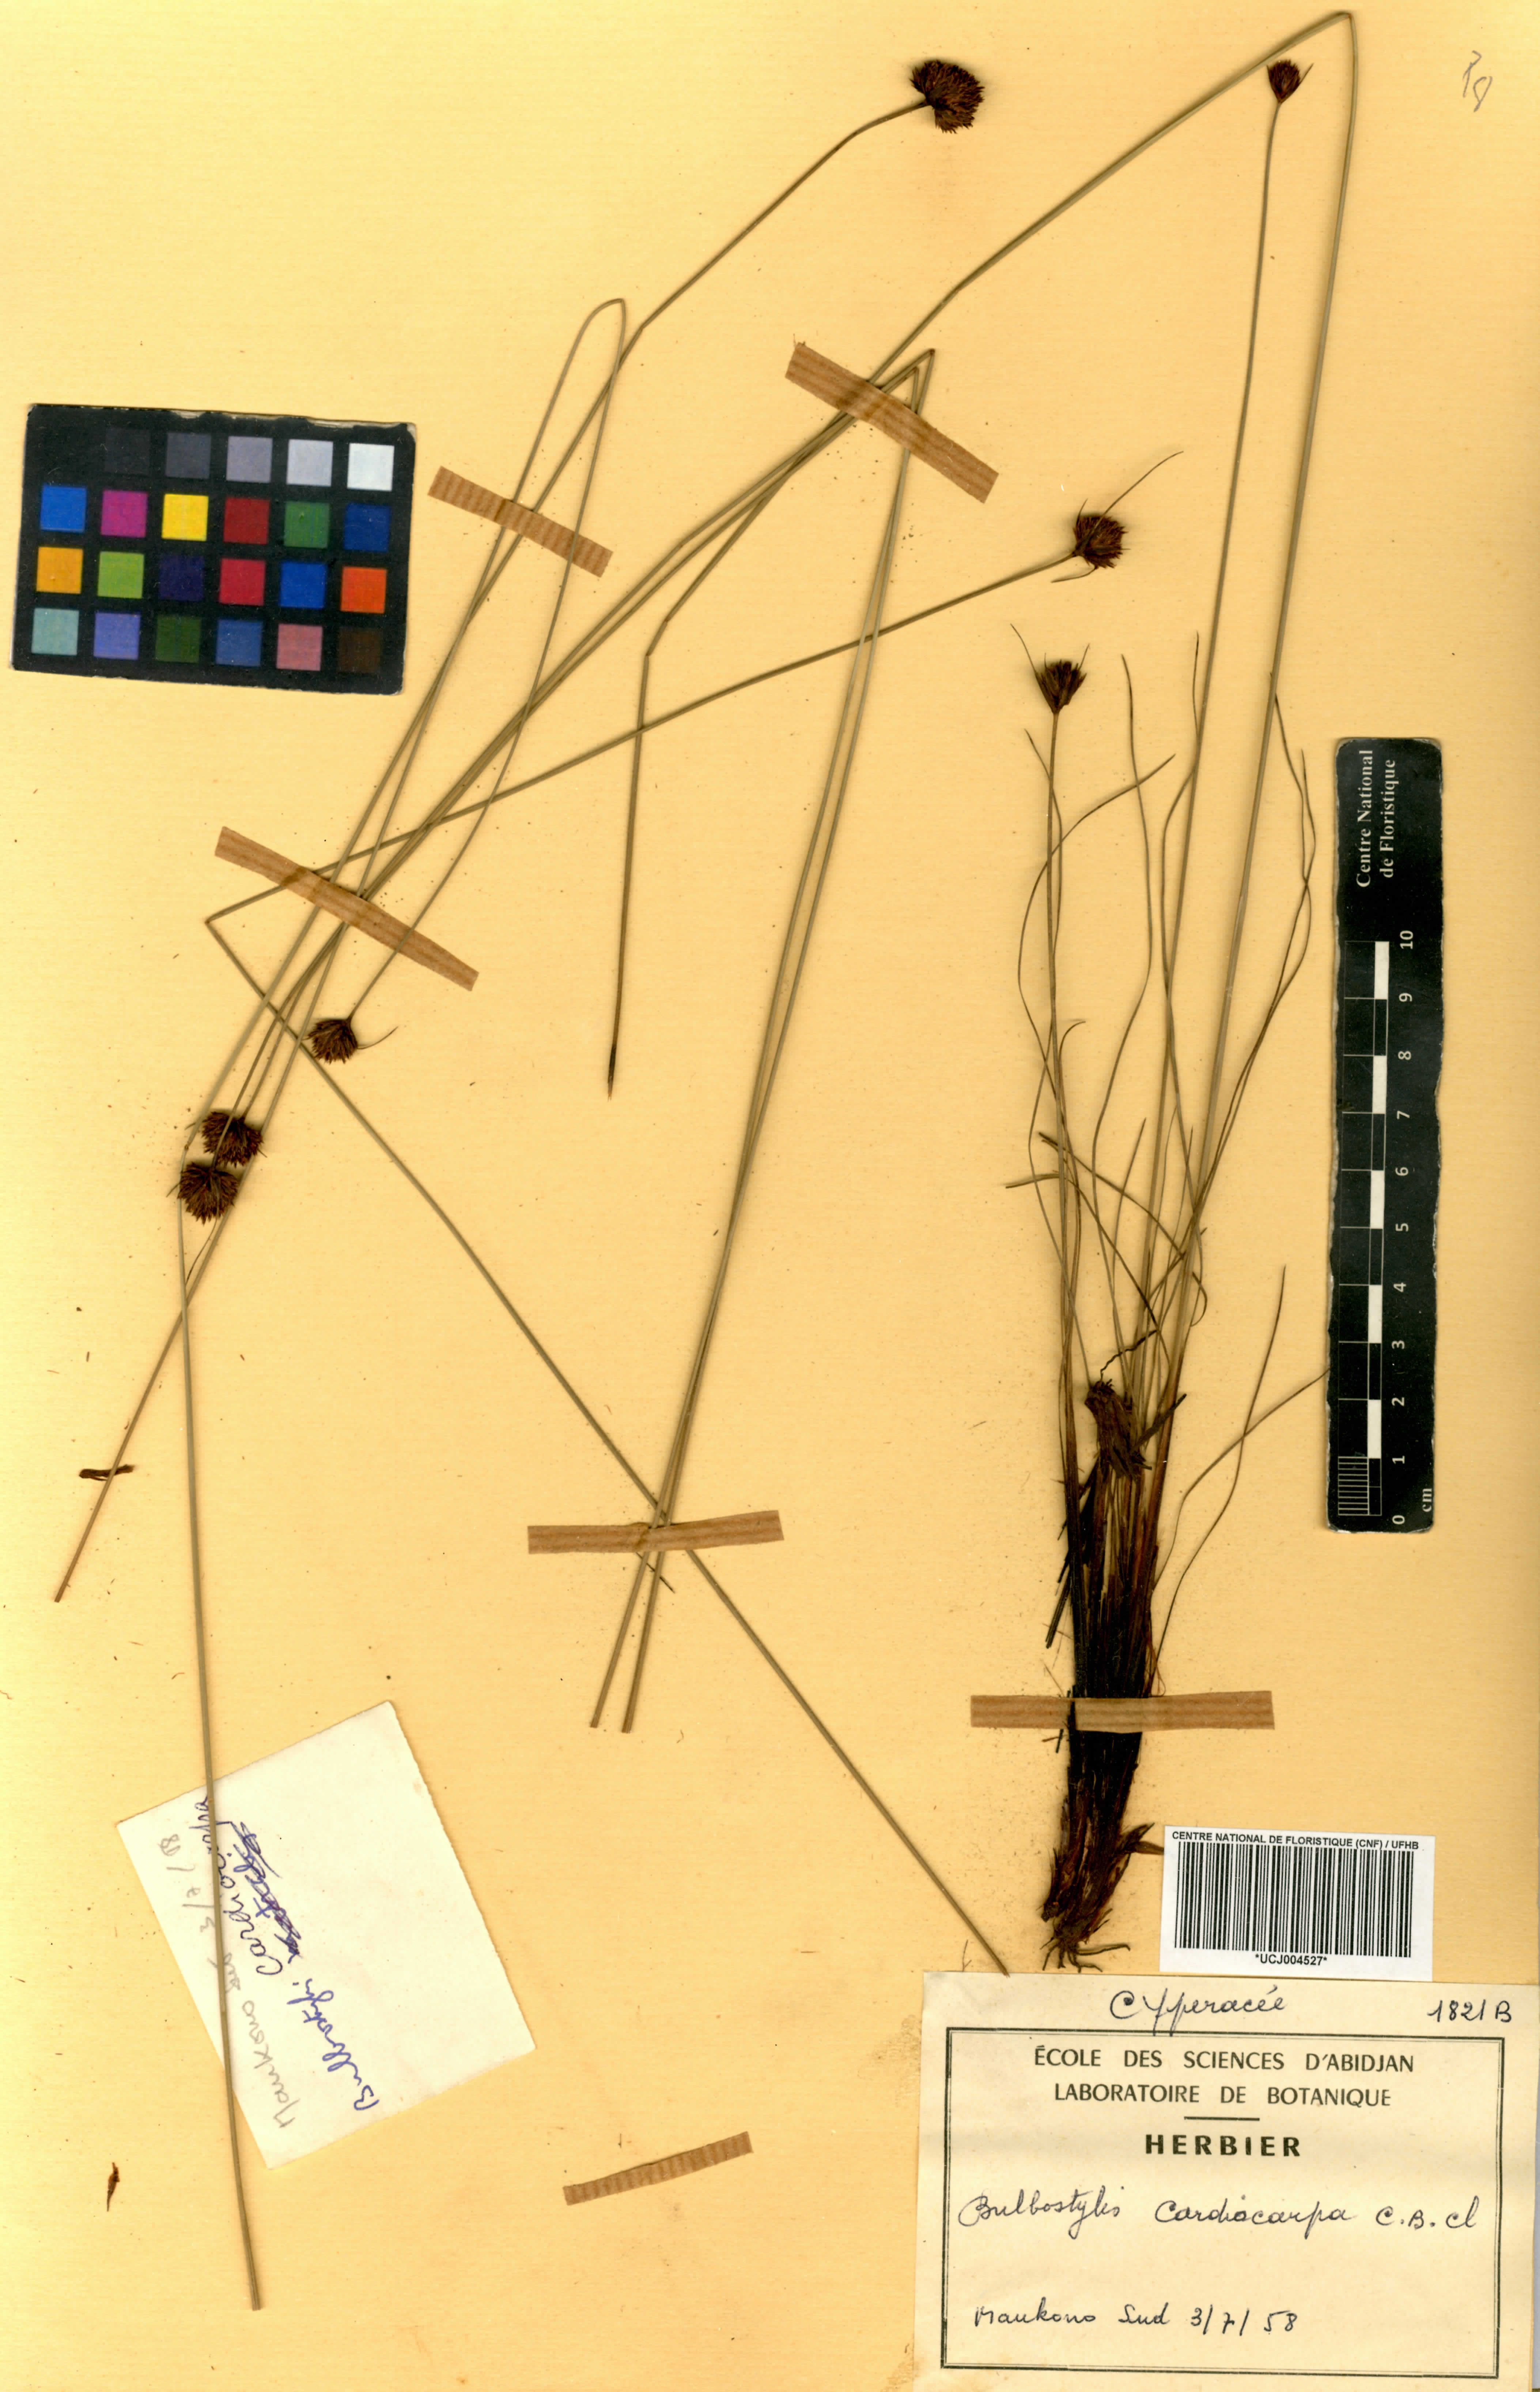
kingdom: Plantae
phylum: Tracheophyta
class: Liliopsida
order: Poales
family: Cyperaceae
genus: Bulbostylis
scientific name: Bulbostylis filamentosa
